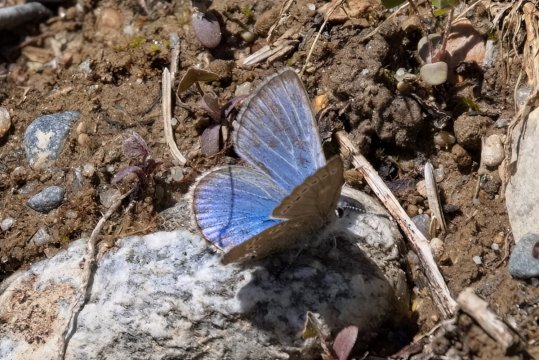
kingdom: Animalia
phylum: Arthropoda
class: Insecta
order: Lepidoptera
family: Lycaenidae
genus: Glaucopsyche
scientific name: Glaucopsyche lygdamus
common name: Silvery Blue
